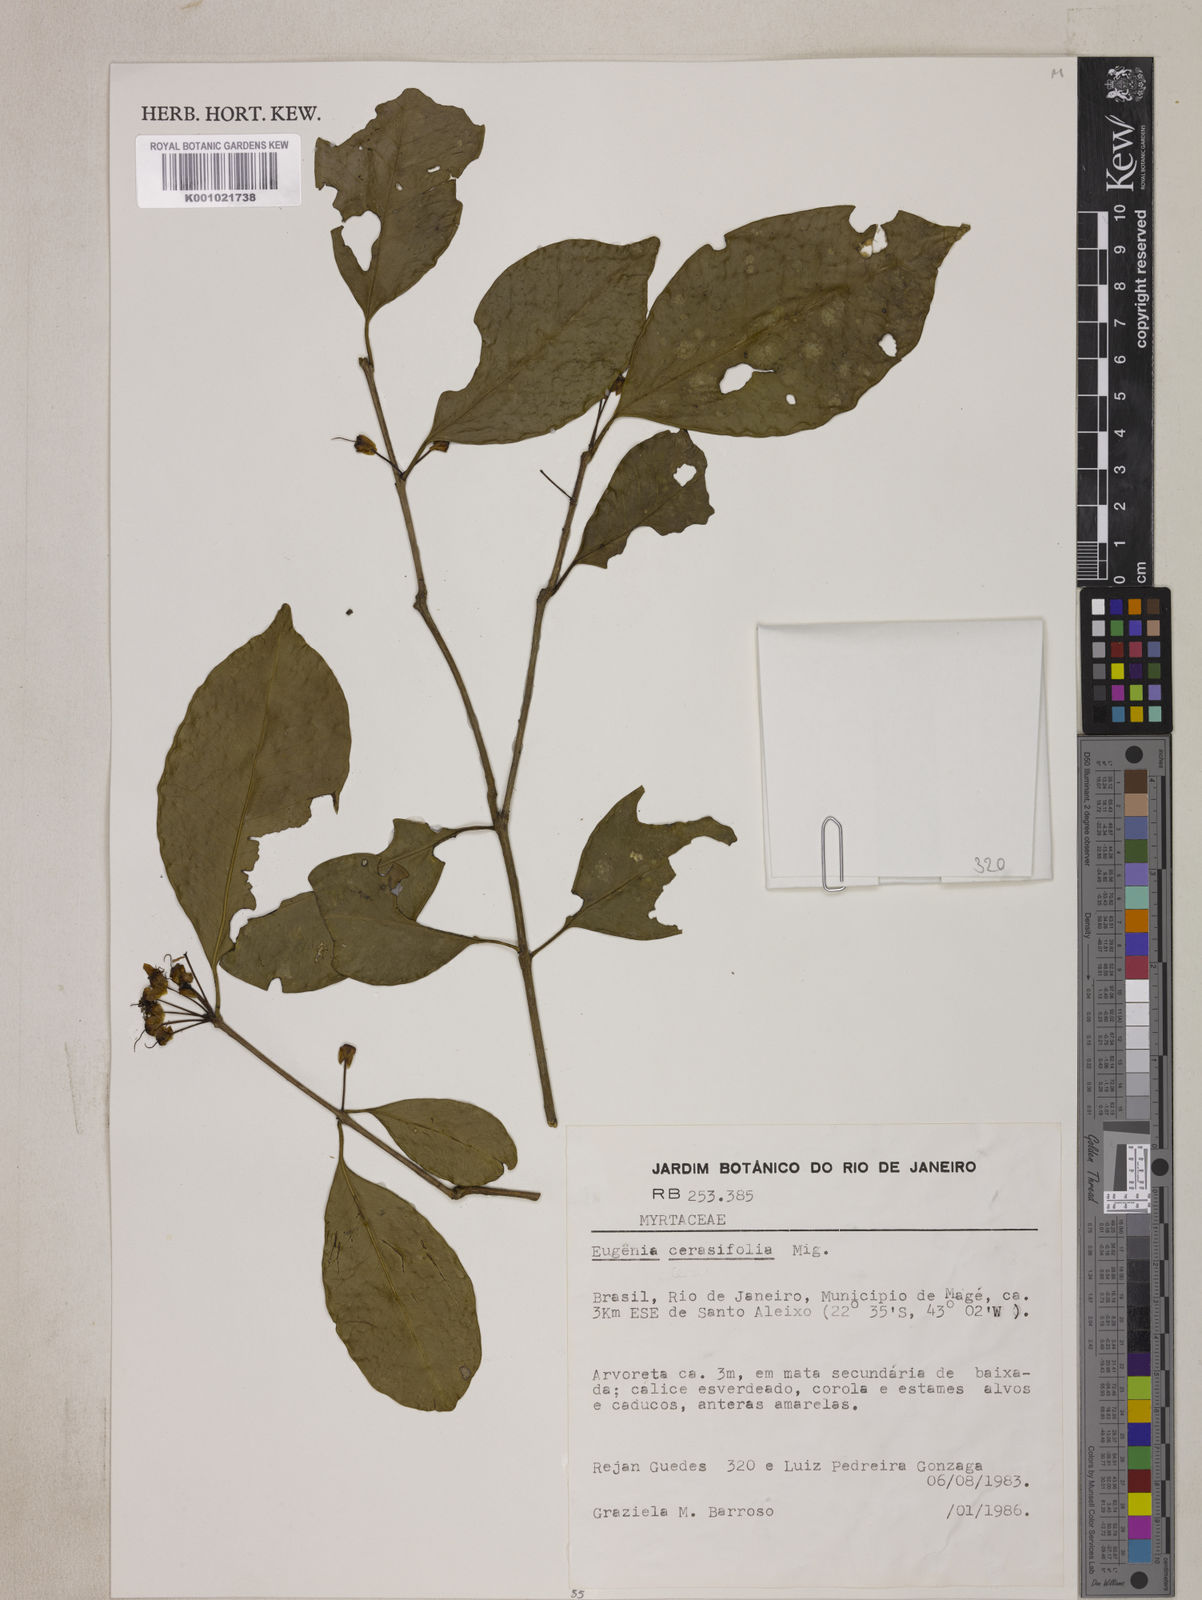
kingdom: Plantae
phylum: Tracheophyta
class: Magnoliopsida
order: Myrtales
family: Myrtaceae
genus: Eugenia
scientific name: Eugenia cerasiflora
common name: Cherry-of-the-rio-grande
